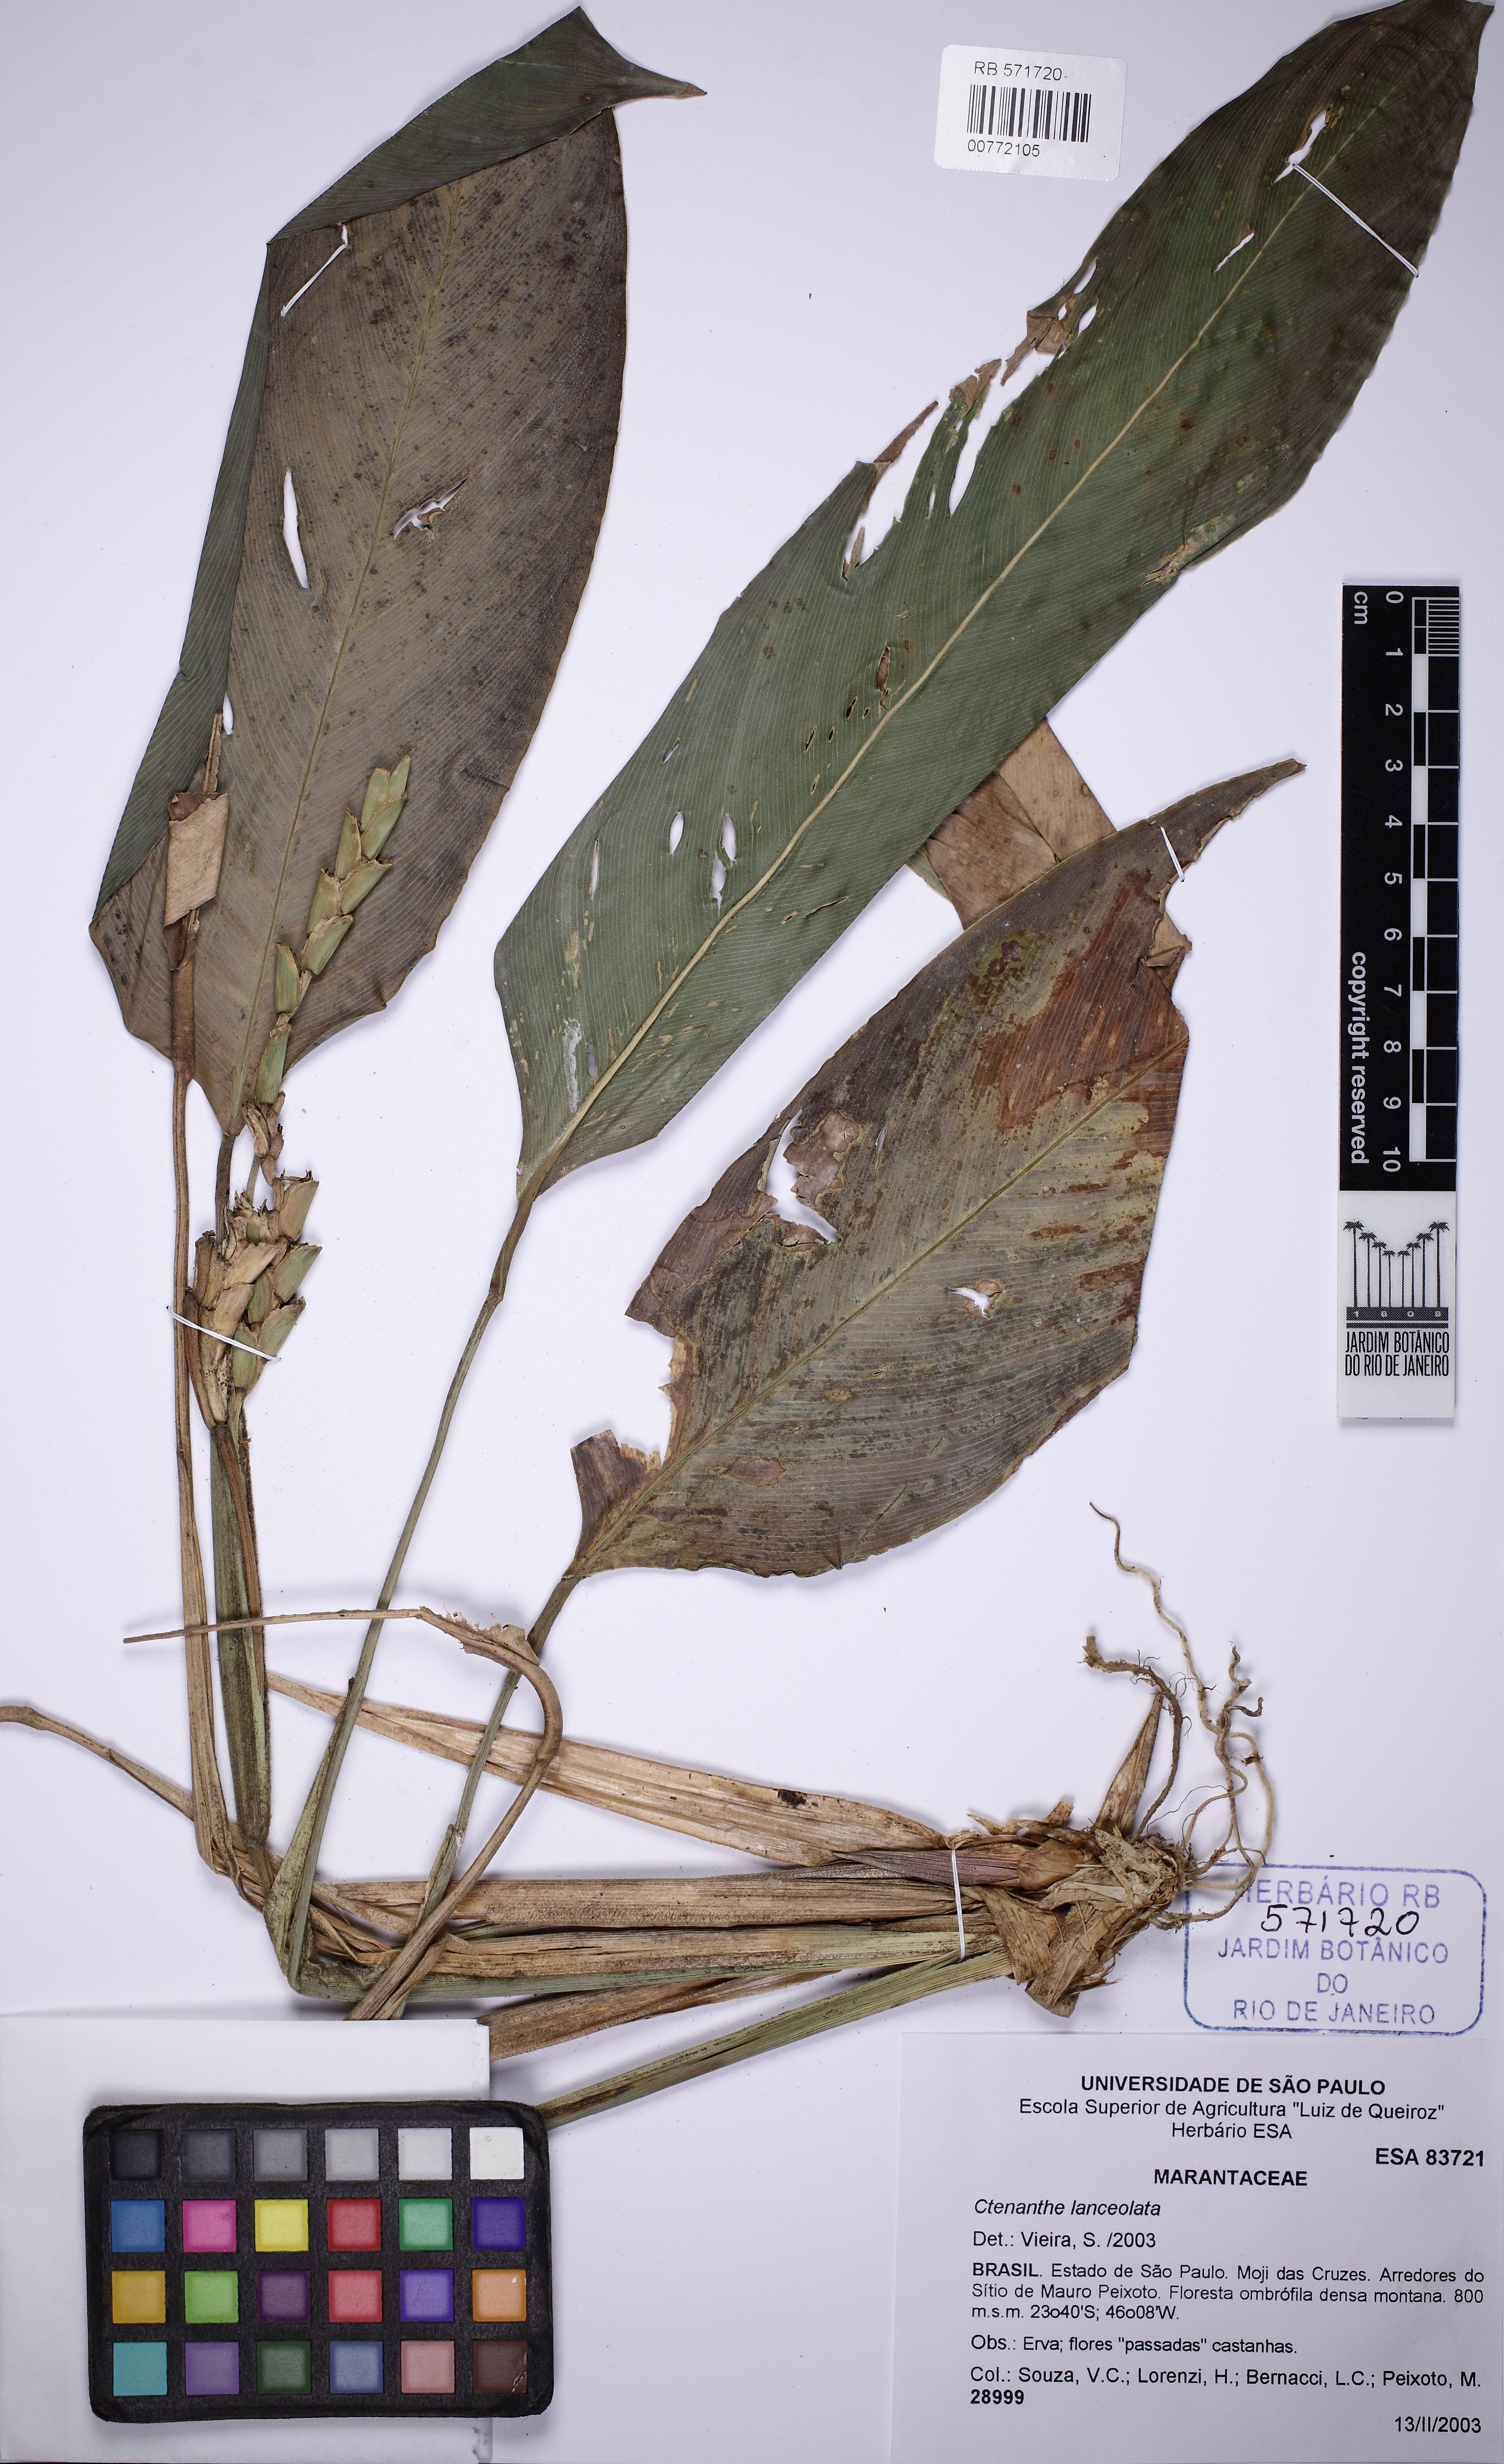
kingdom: Plantae
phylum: Tracheophyta
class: Liliopsida
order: Zingiberales
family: Marantaceae
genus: Ctenanthe
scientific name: Ctenanthe lanceolata
